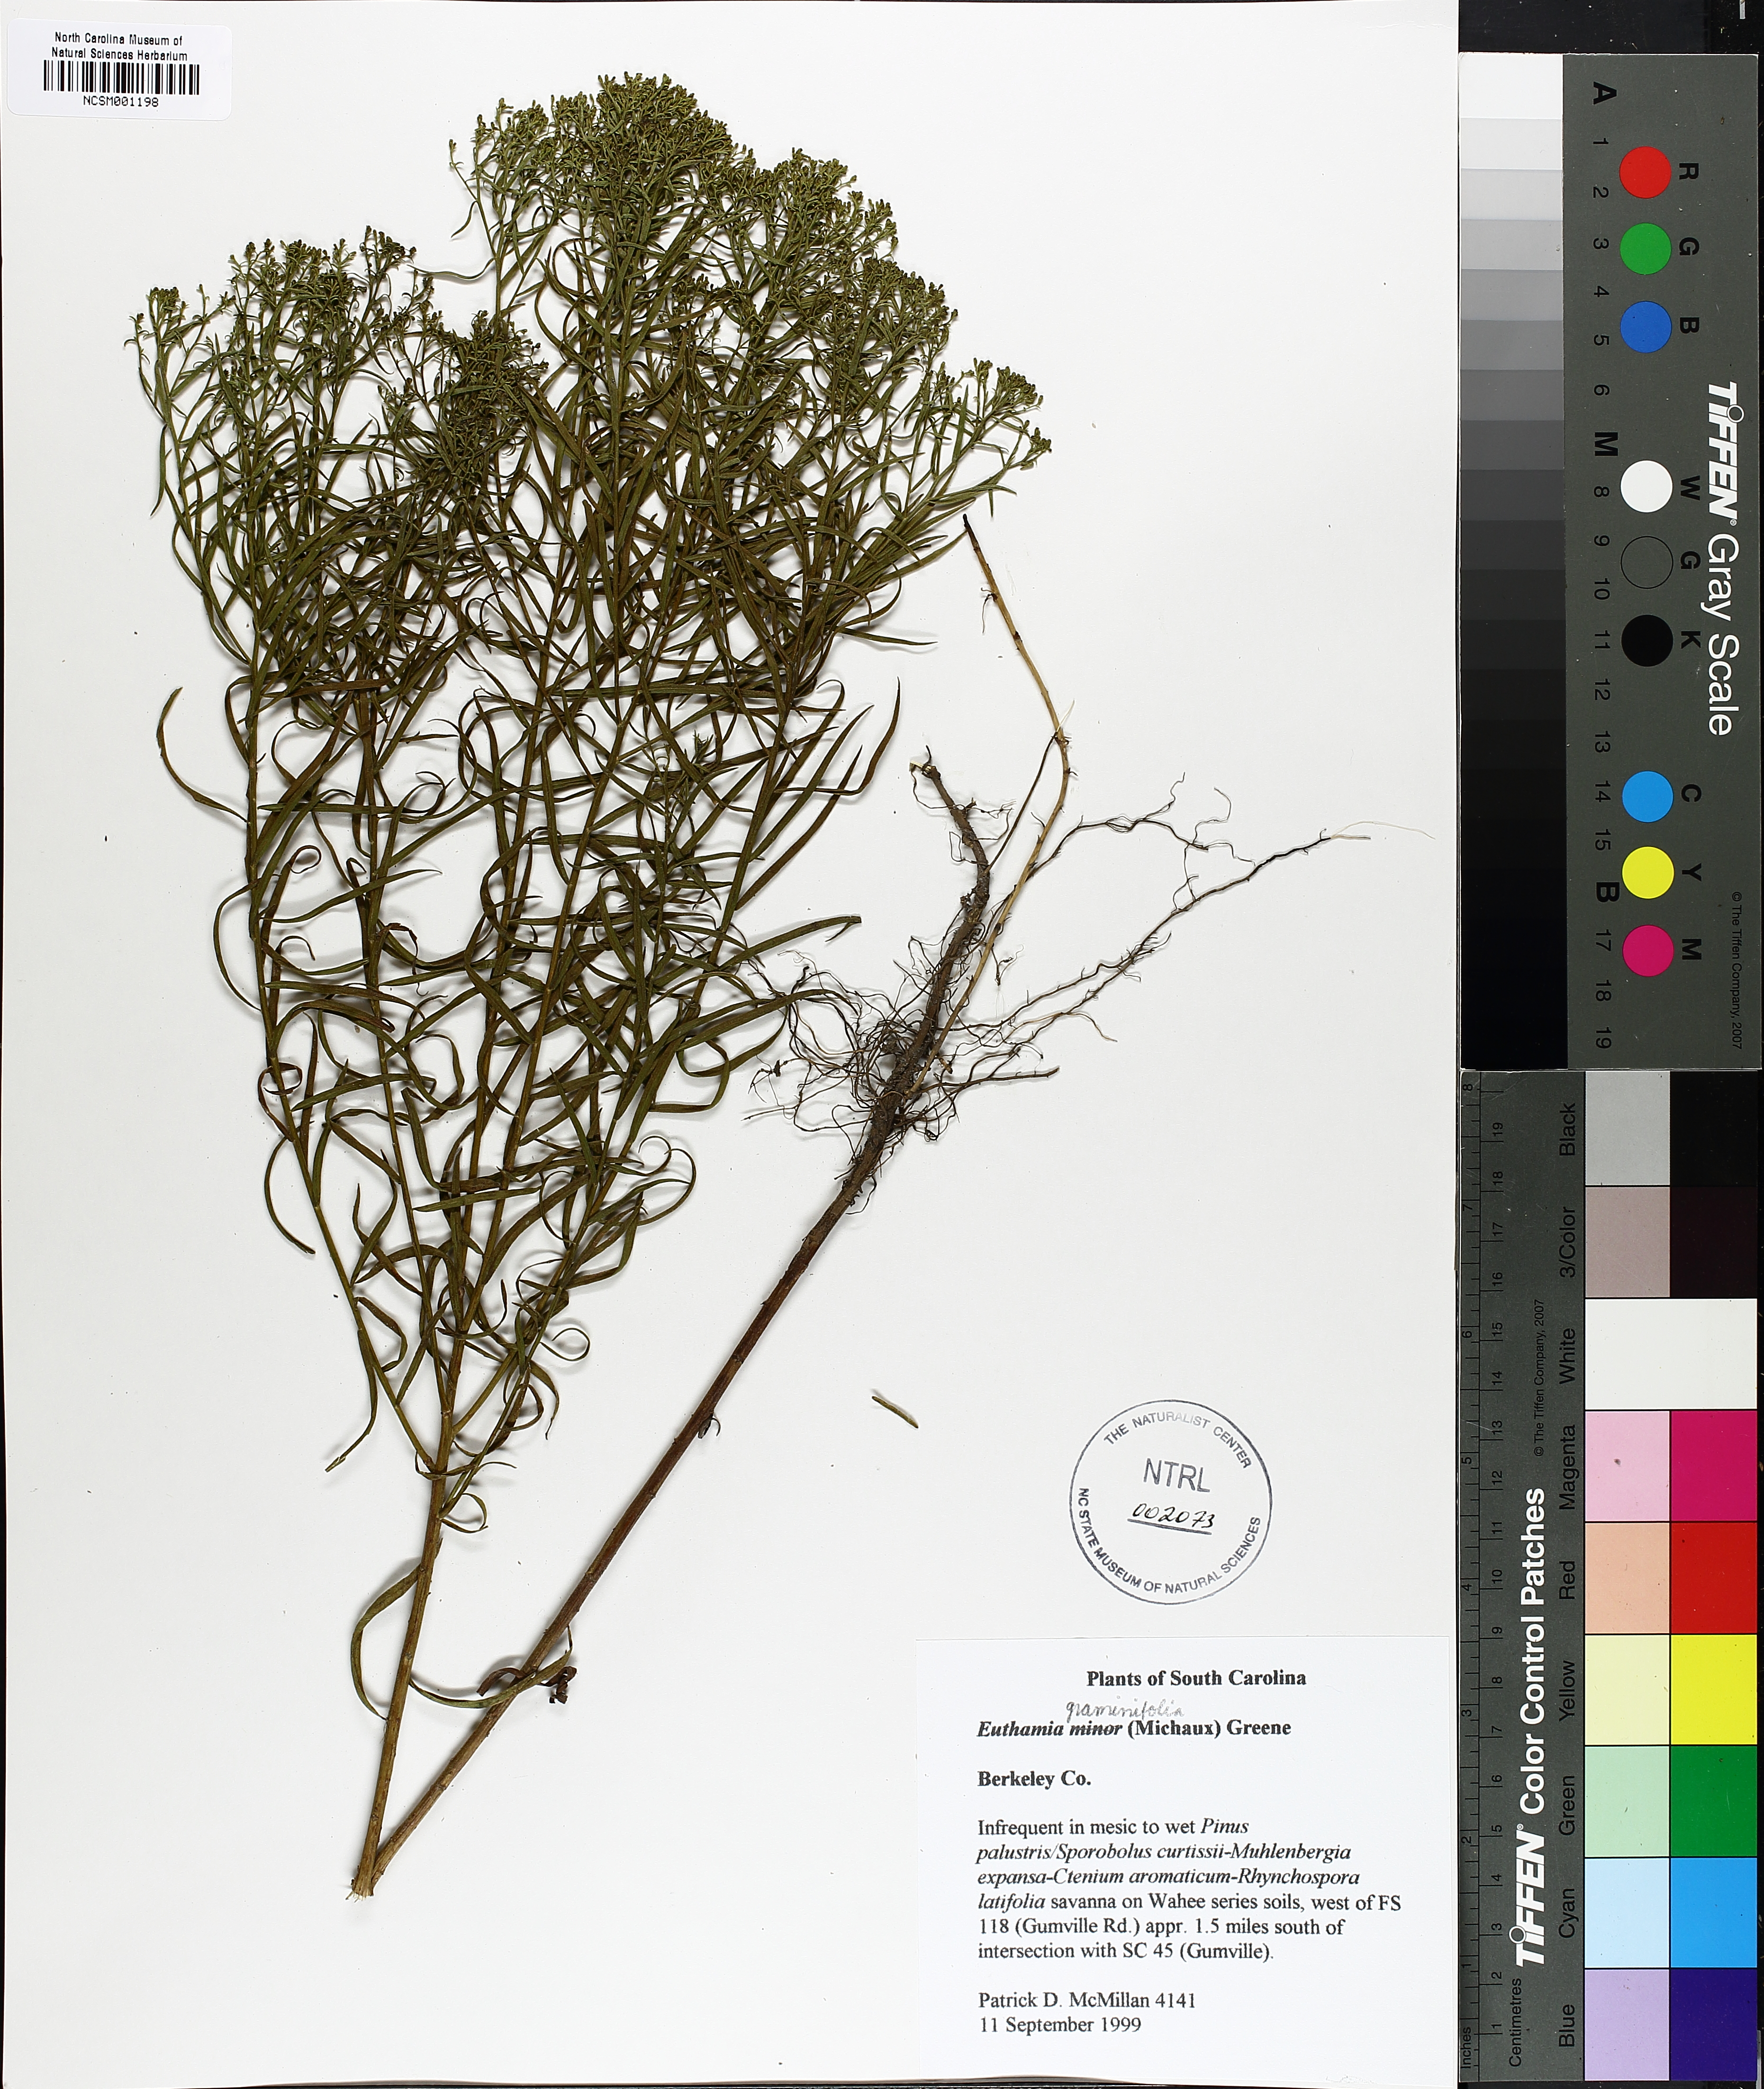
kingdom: Plantae
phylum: Tracheophyta
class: Magnoliopsida
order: Asterales
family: Asteraceae
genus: Euthamia
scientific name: Euthamia caroliniana
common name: Coastal plain goldentop
